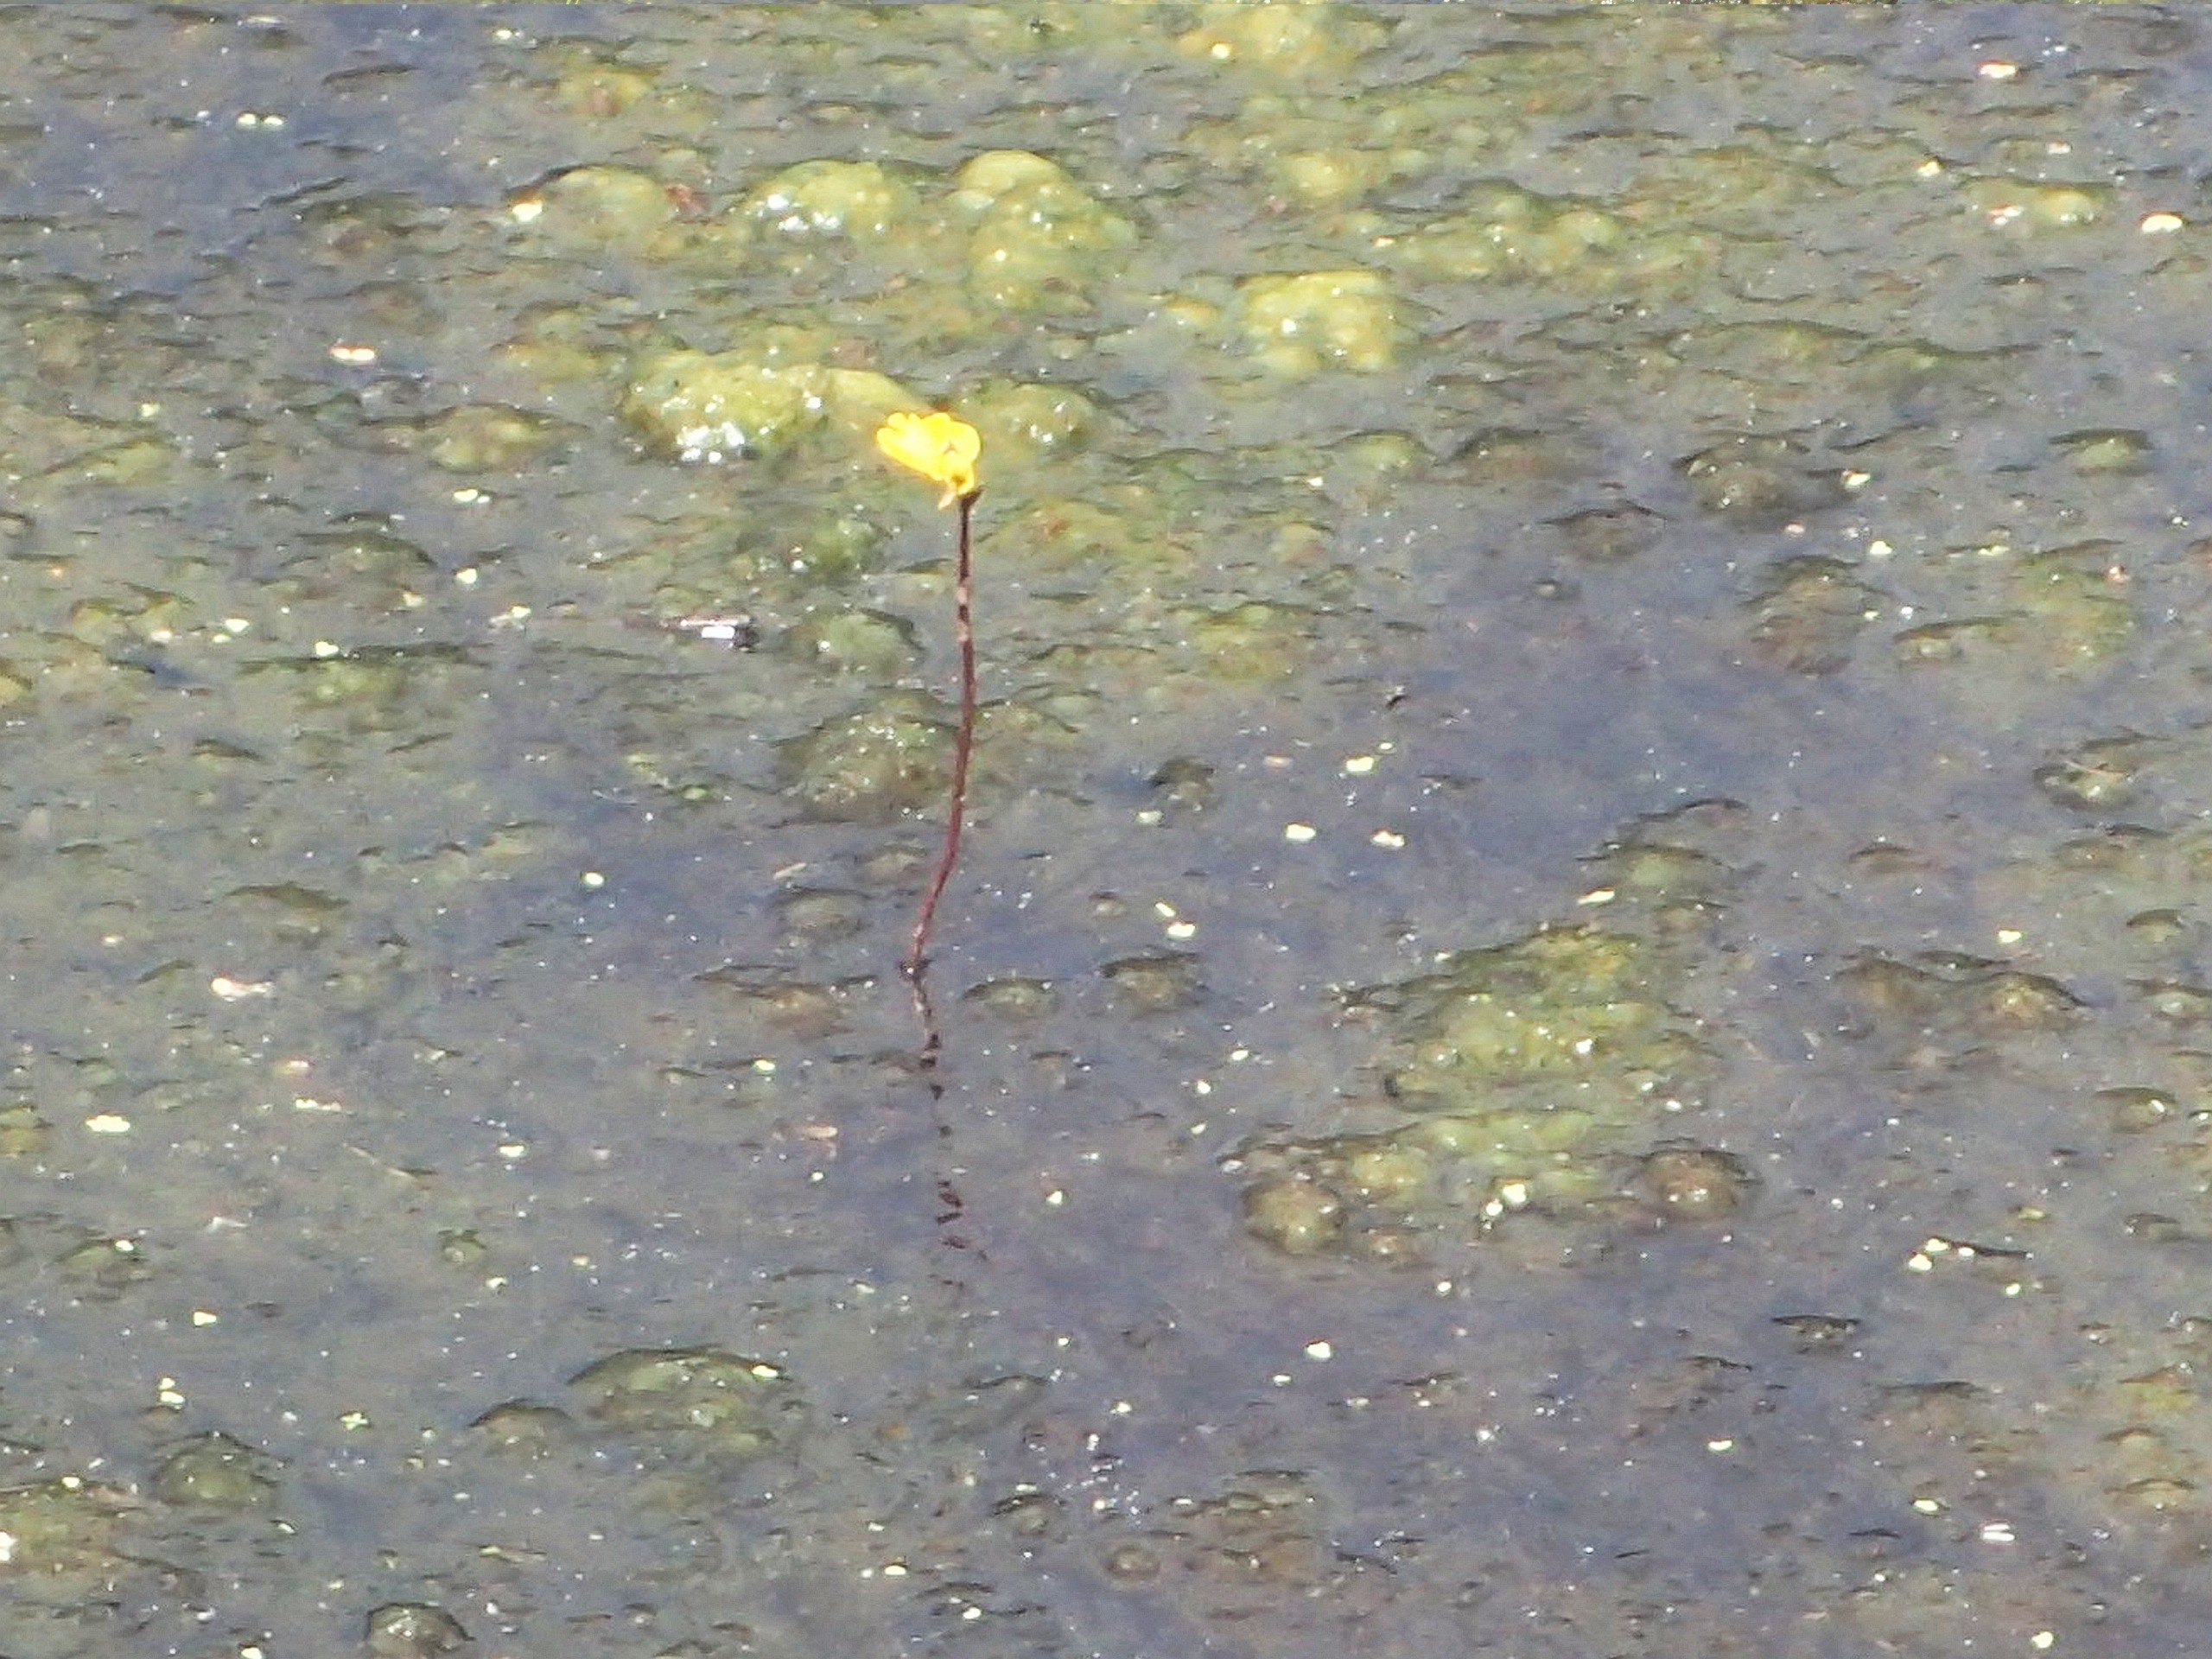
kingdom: Plantae
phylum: Tracheophyta
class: Magnoliopsida
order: Lamiales
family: Lentibulariaceae
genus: Utricularia
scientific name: Utricularia vulgaris
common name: Almindelig blærerod
